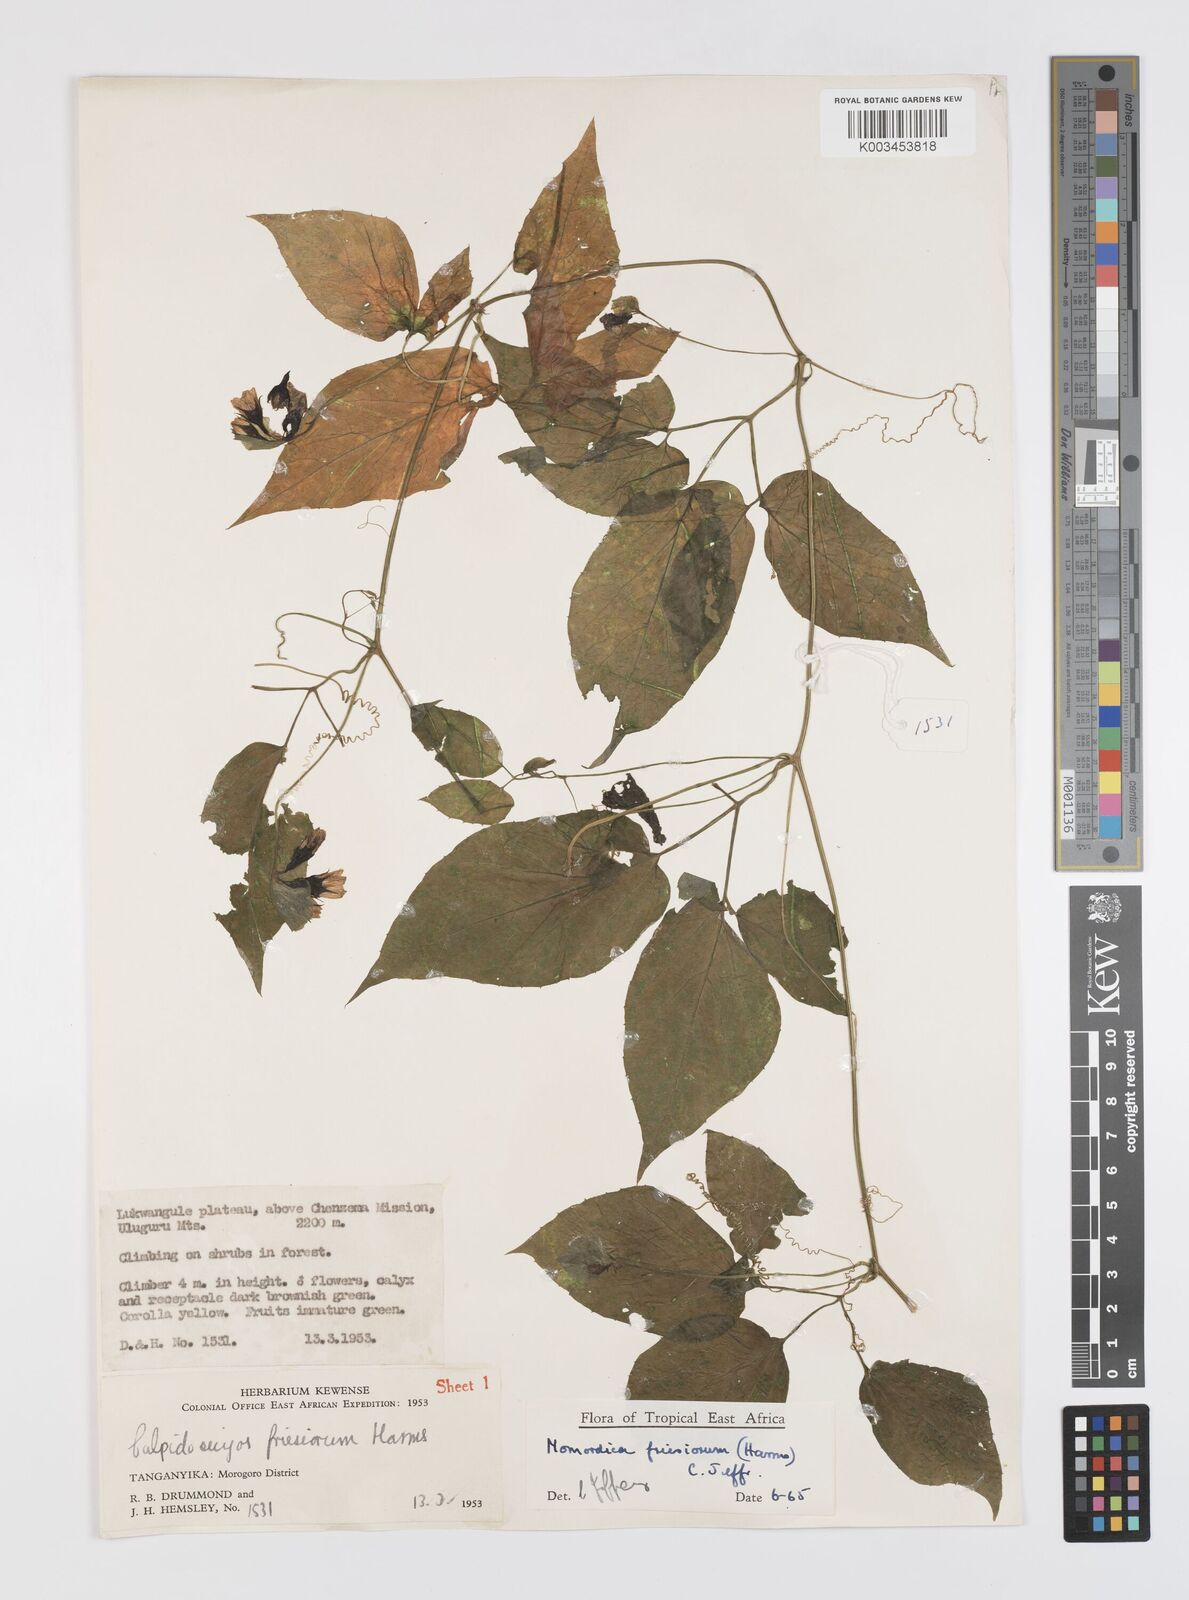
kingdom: Plantae
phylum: Tracheophyta
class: Magnoliopsida
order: Cucurbitales
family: Cucurbitaceae
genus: Momordica
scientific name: Momordica friesiorum
